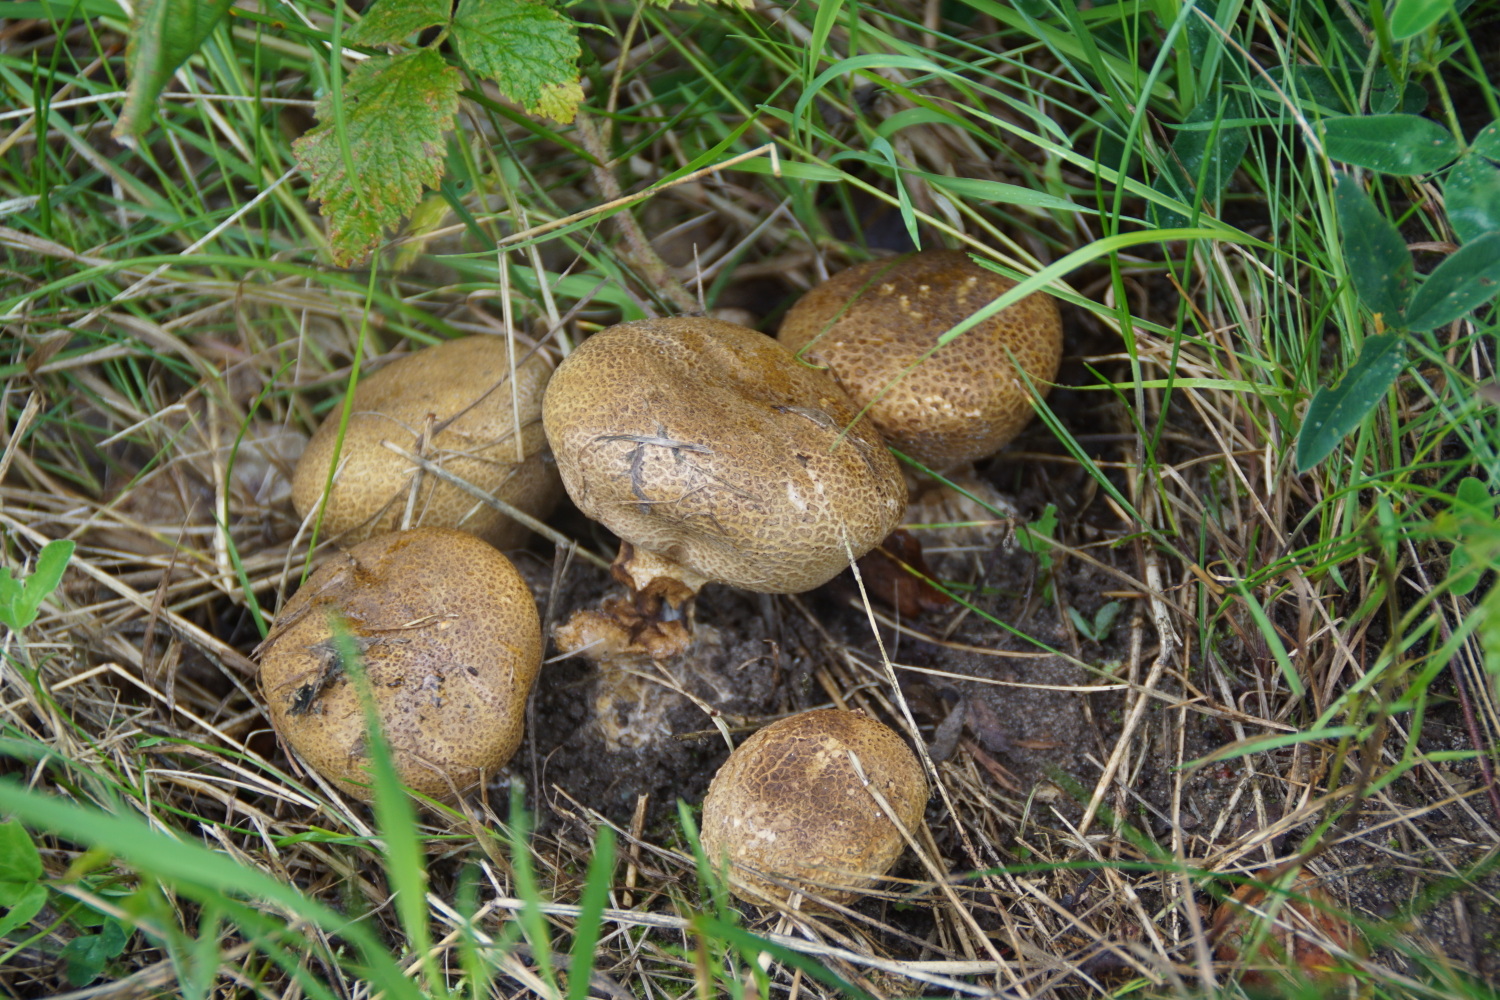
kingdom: Fungi
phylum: Basidiomycota
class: Agaricomycetes
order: Boletales
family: Sclerodermataceae
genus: Scleroderma
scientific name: Scleroderma verrucosum
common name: stilket bruskbold
